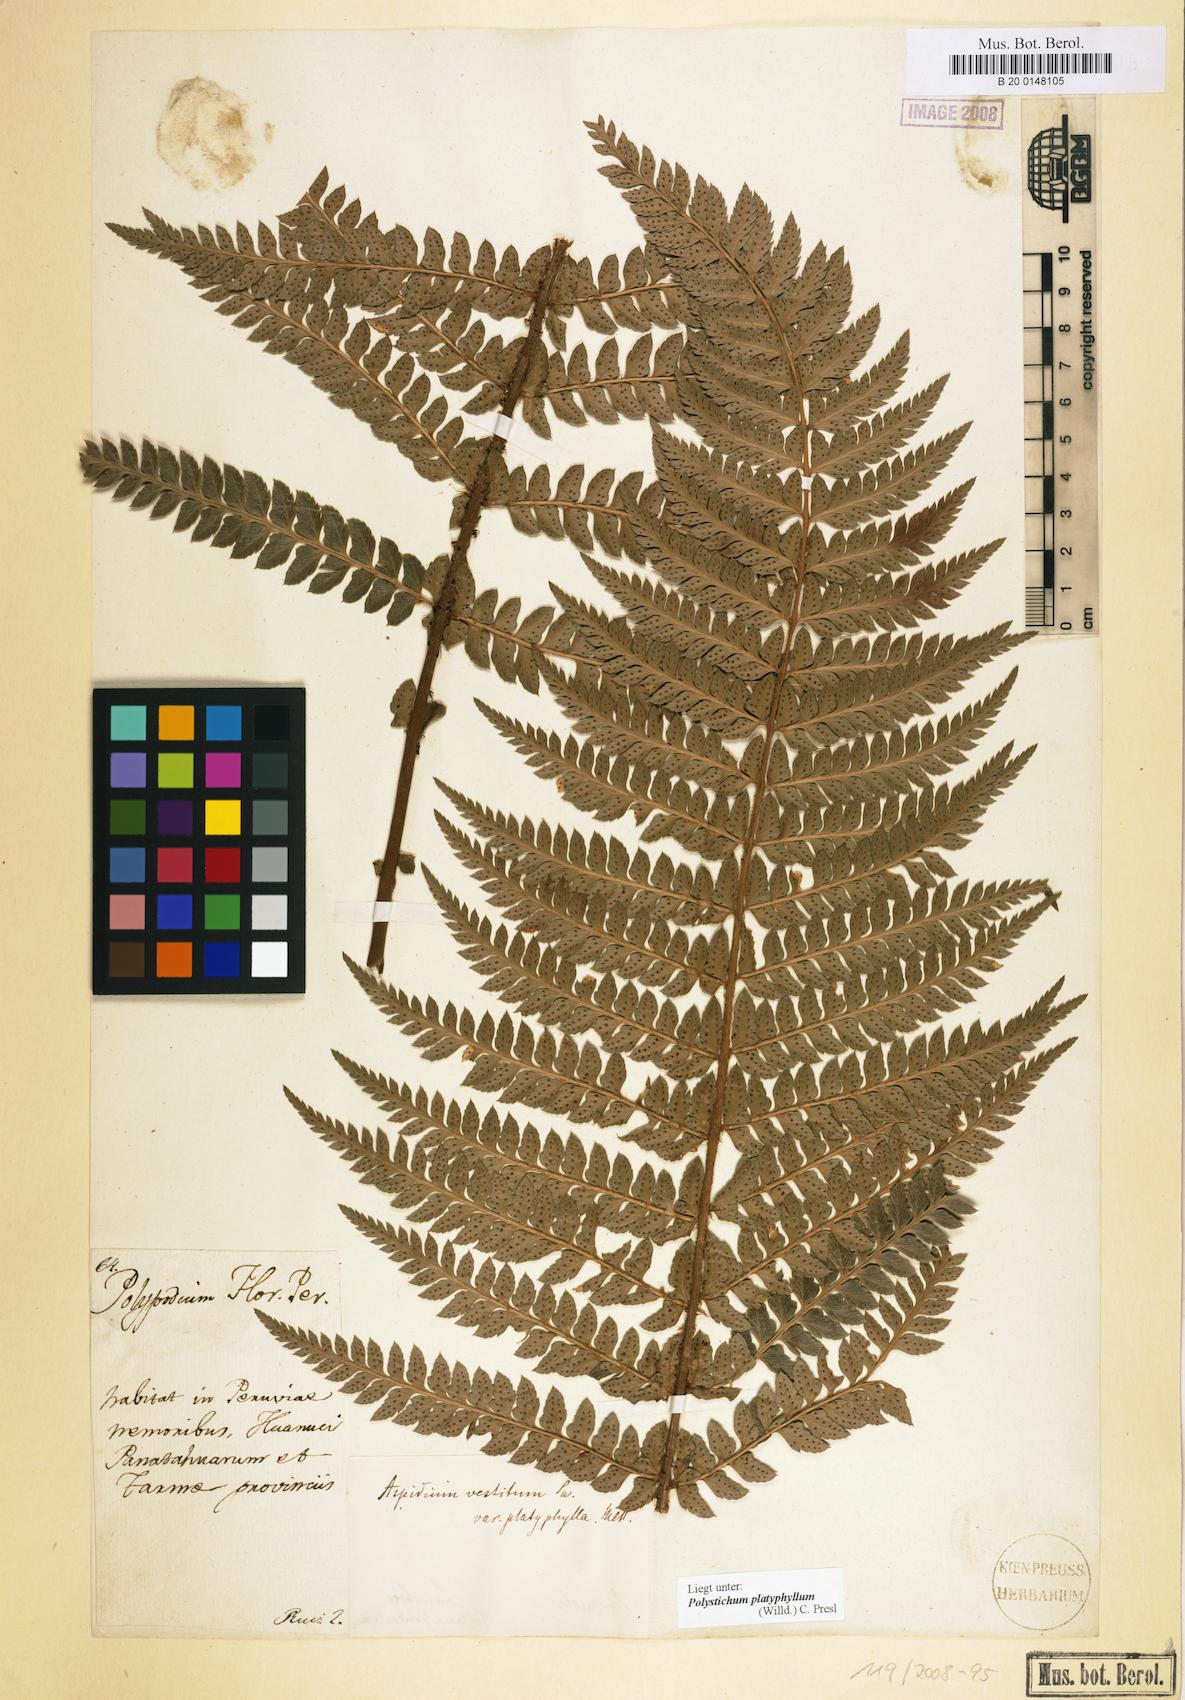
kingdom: Plantae
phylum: Tracheophyta
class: Polypodiopsida
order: Polypodiales
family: Dryopteridaceae
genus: Polystichum
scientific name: Polystichum platyphyllum
